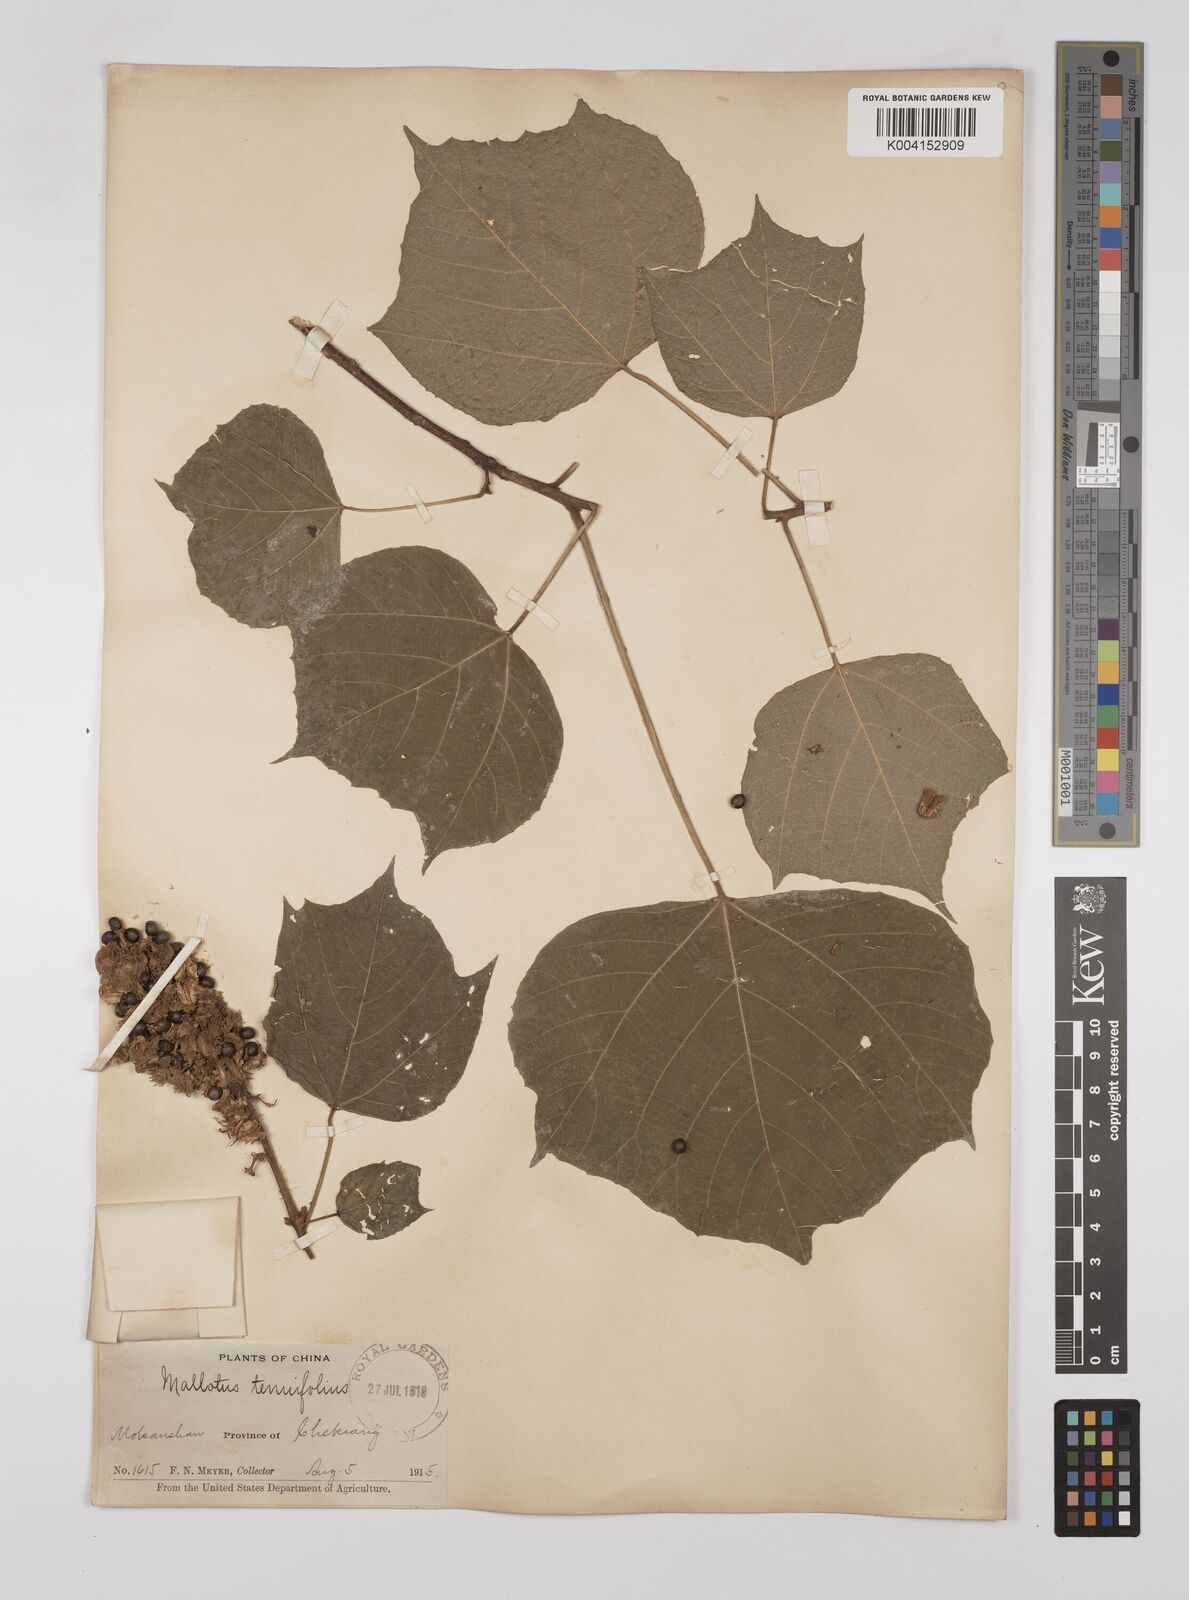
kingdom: Plantae
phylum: Tracheophyta
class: Magnoliopsida
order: Malpighiales
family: Euphorbiaceae
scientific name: Euphorbiaceae
